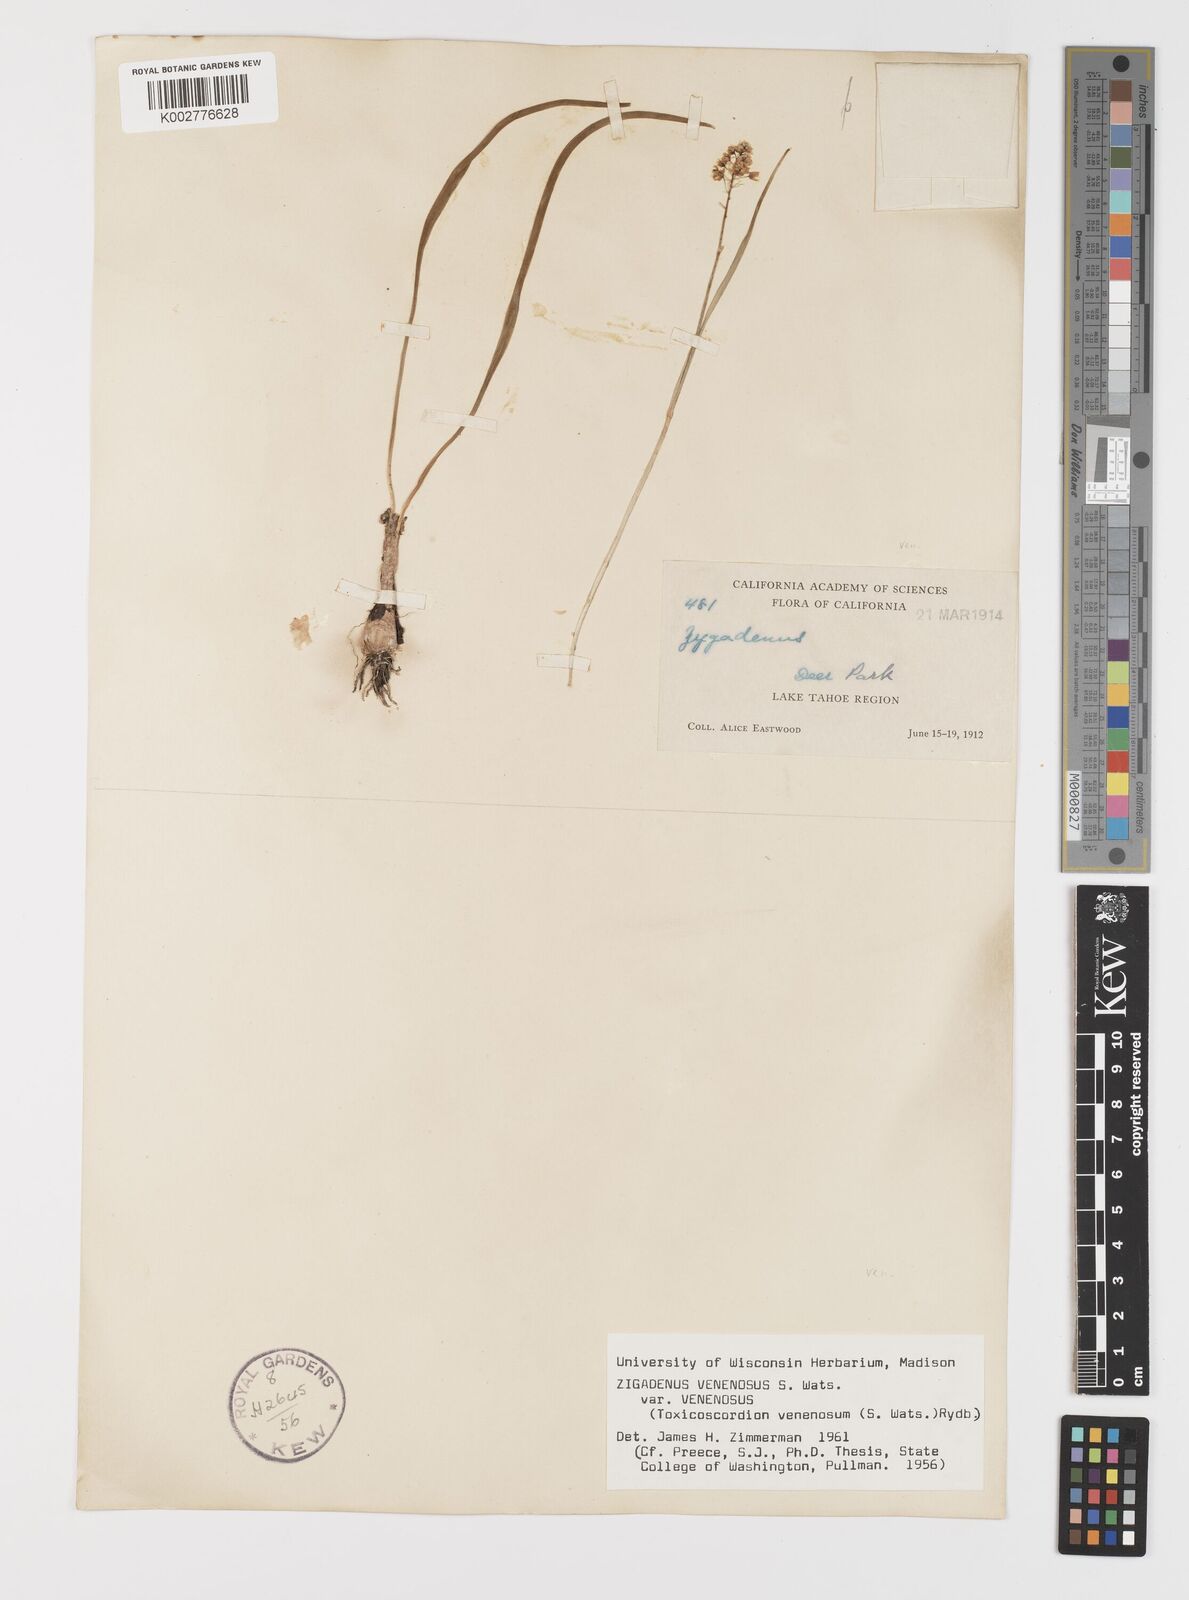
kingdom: Plantae
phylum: Tracheophyta
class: Liliopsida
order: Liliales
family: Melanthiaceae
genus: Toxicoscordion
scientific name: Toxicoscordion venenosum
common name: Meadow death camas
